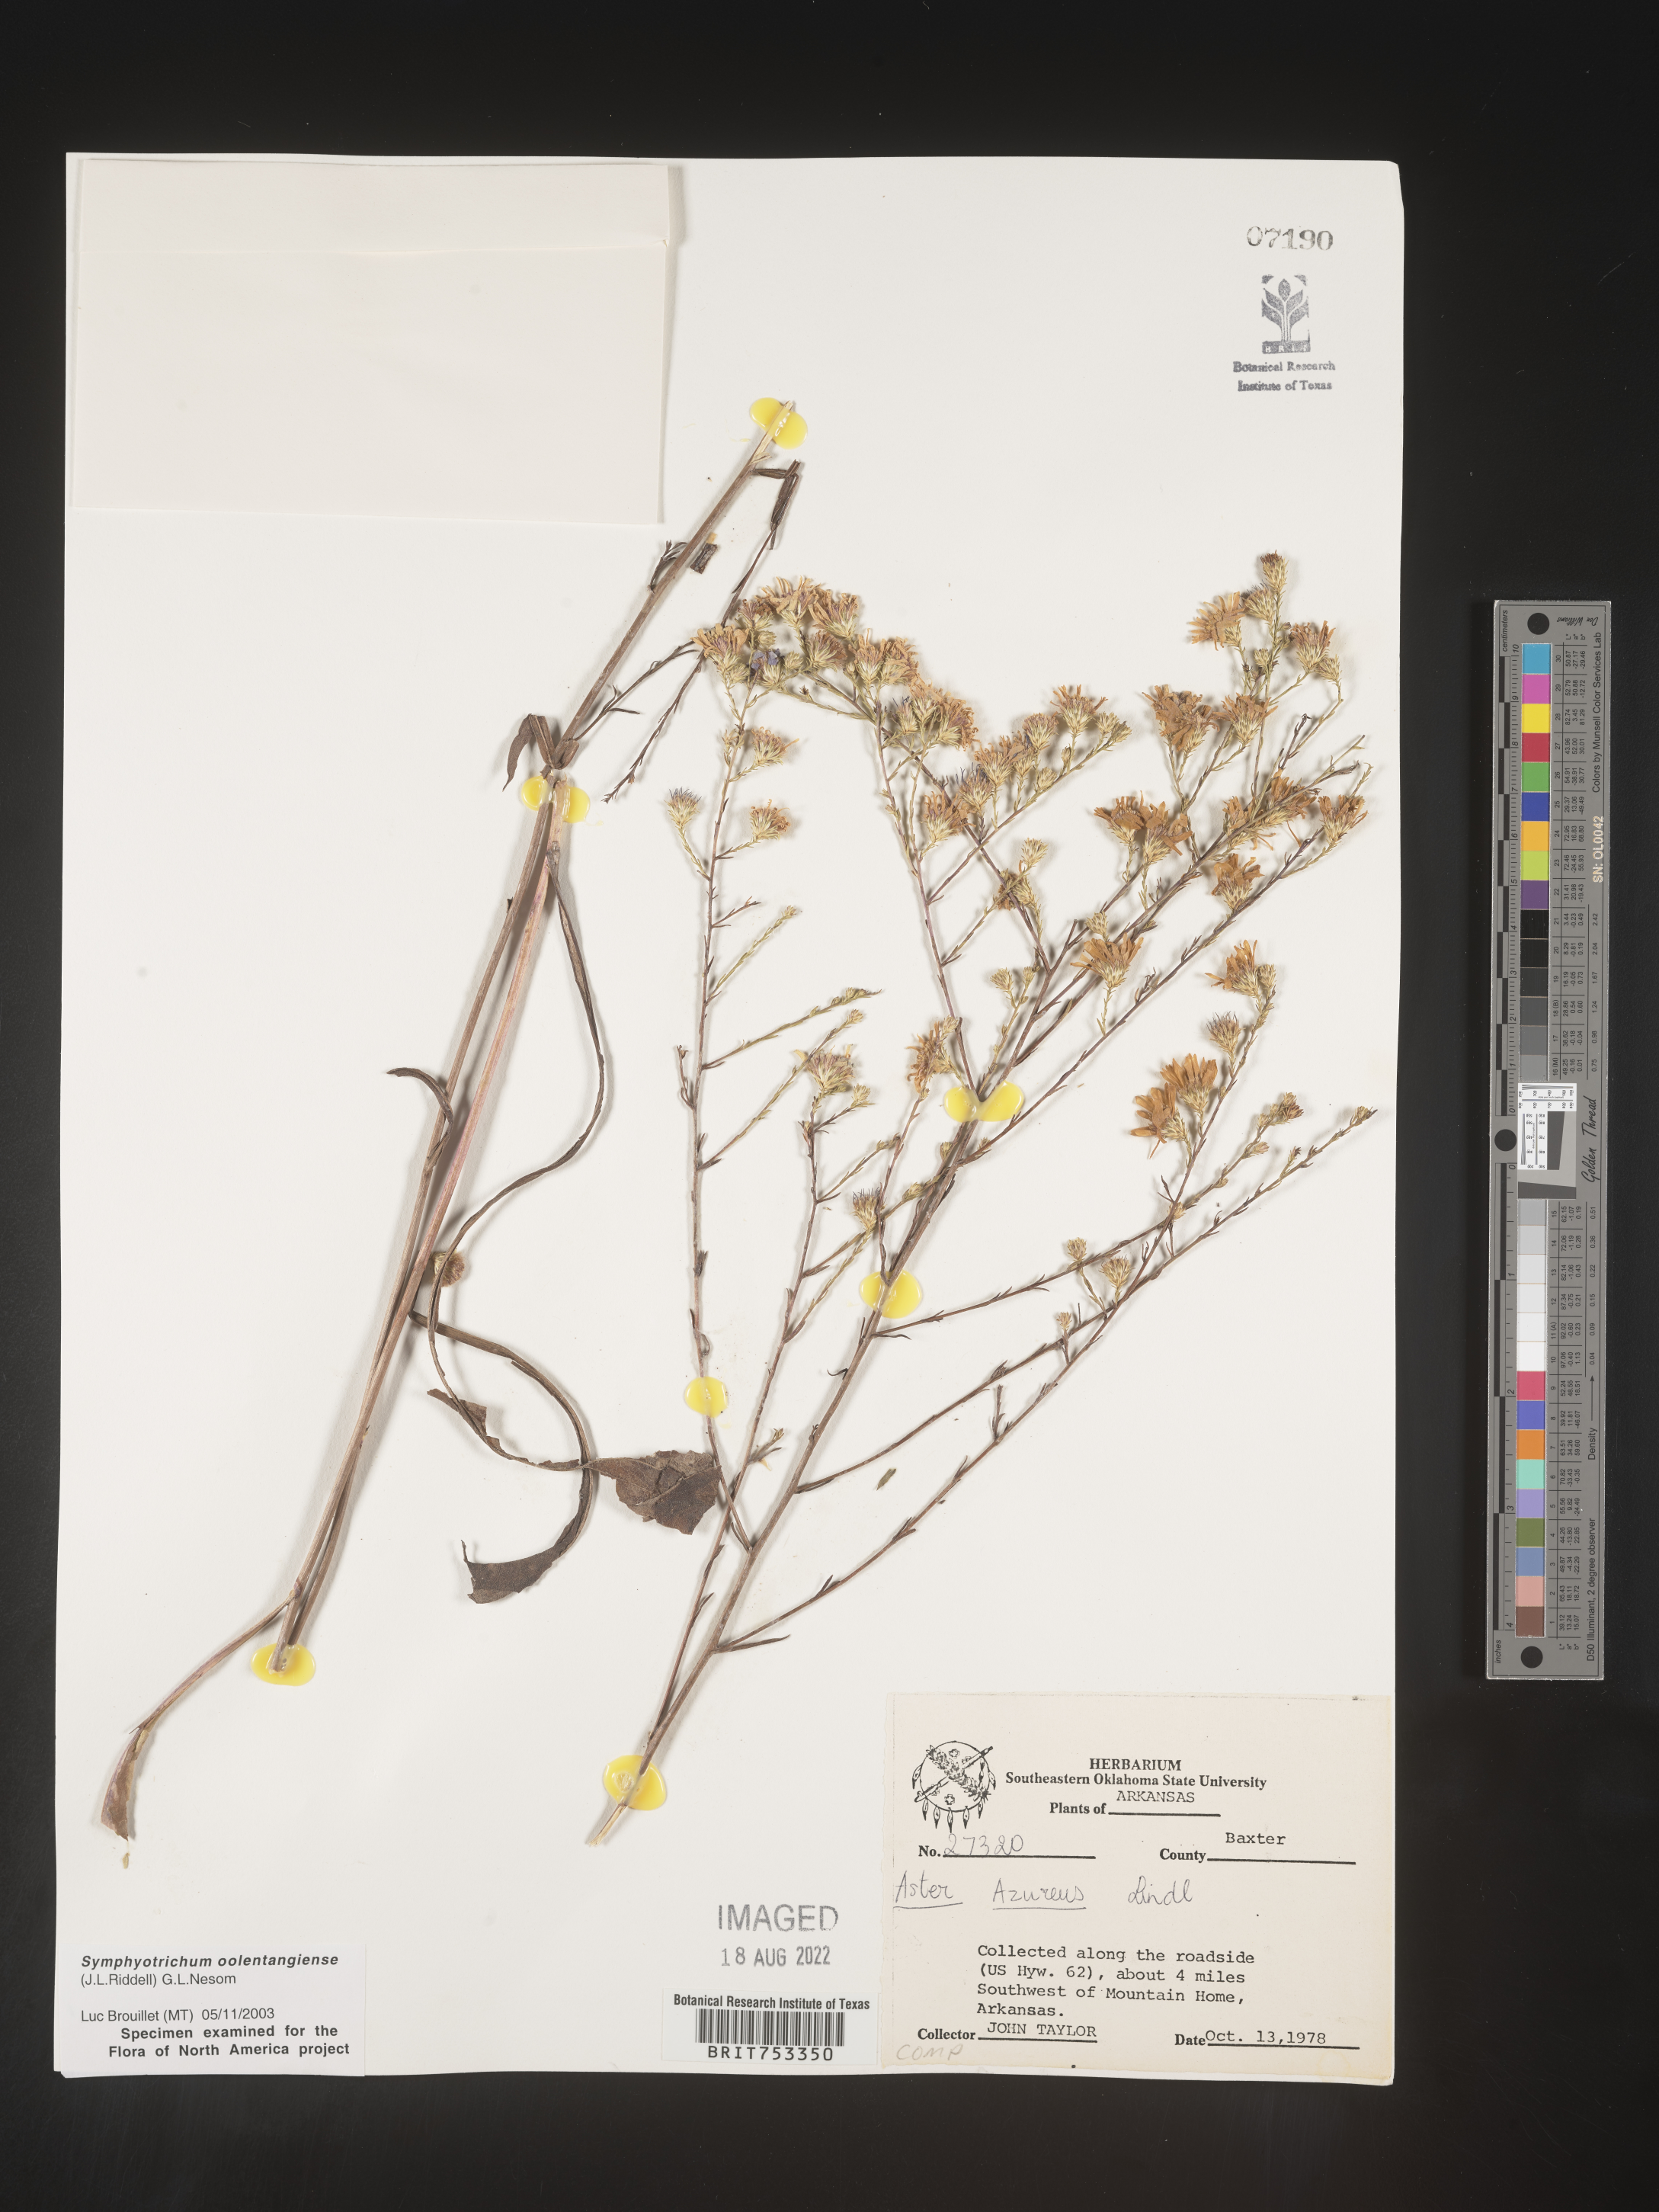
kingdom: Plantae
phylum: Tracheophyta
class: Magnoliopsida
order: Asterales
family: Asteraceae
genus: Symphyotrichum
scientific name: Symphyotrichum oolentangiense
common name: Azure aster
